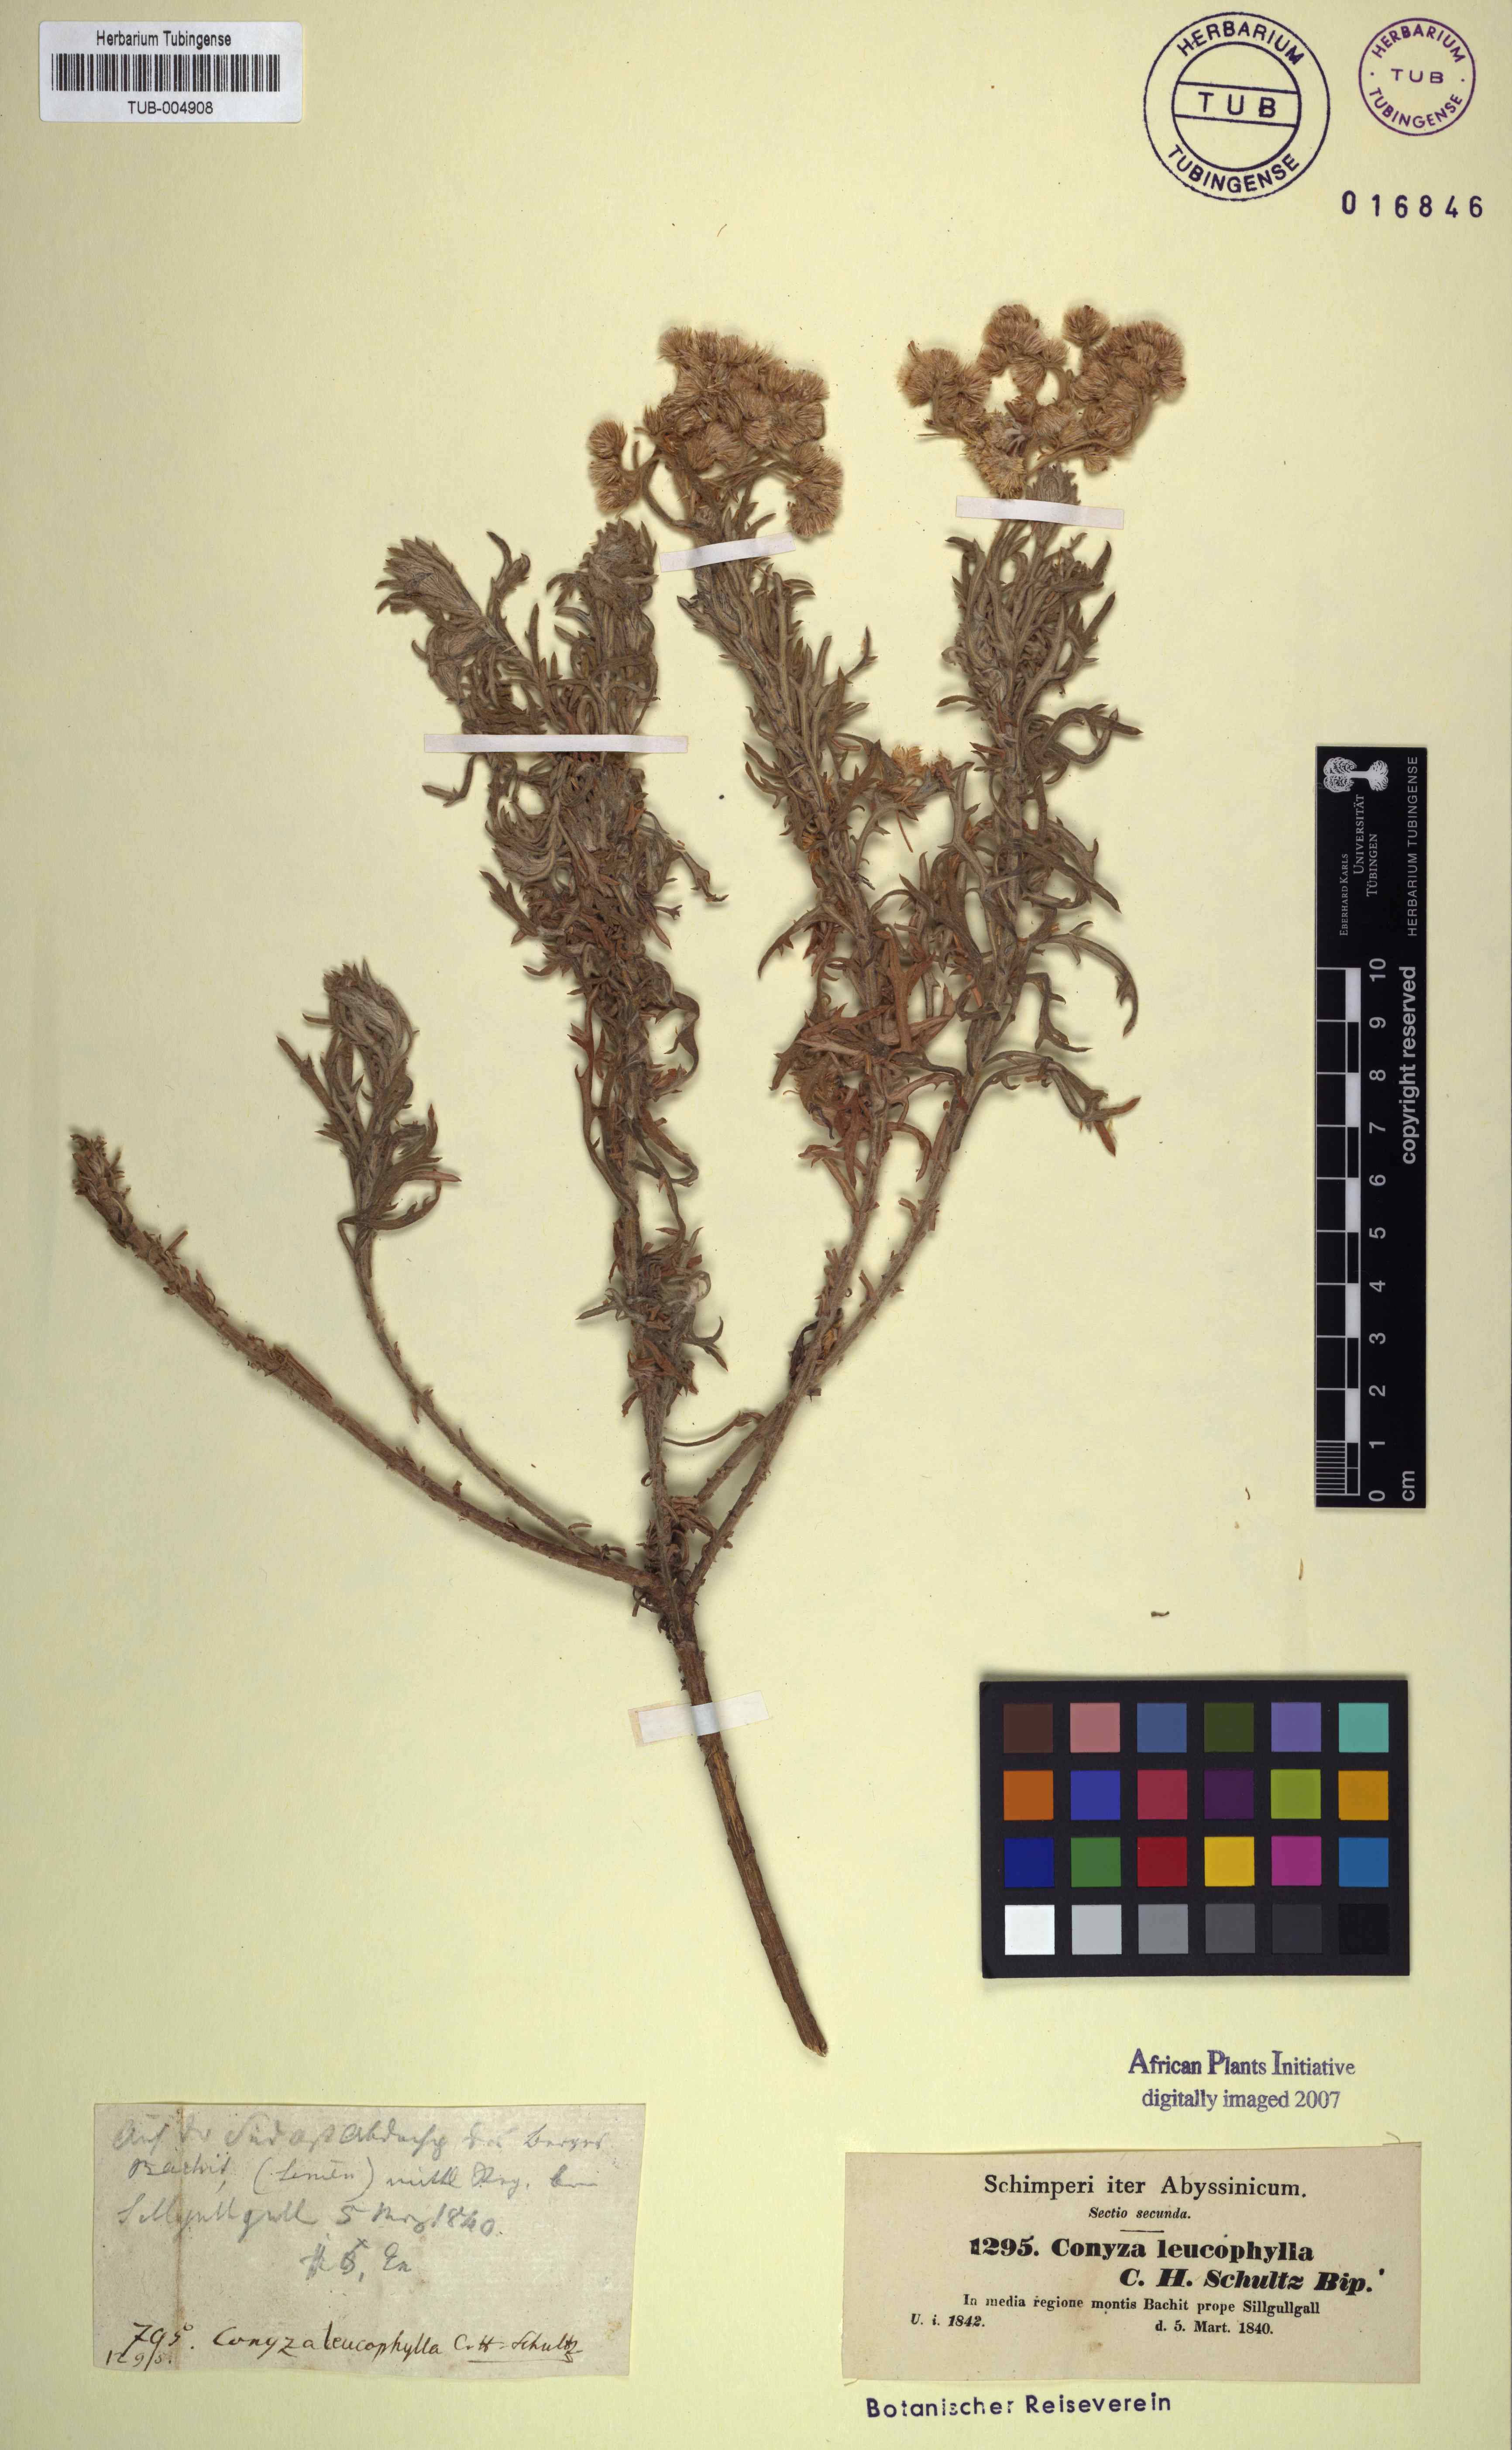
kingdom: Plantae
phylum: Tracheophyta
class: Magnoliopsida
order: Asterales
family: Asteraceae
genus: Conyza
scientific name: Conyza incana
